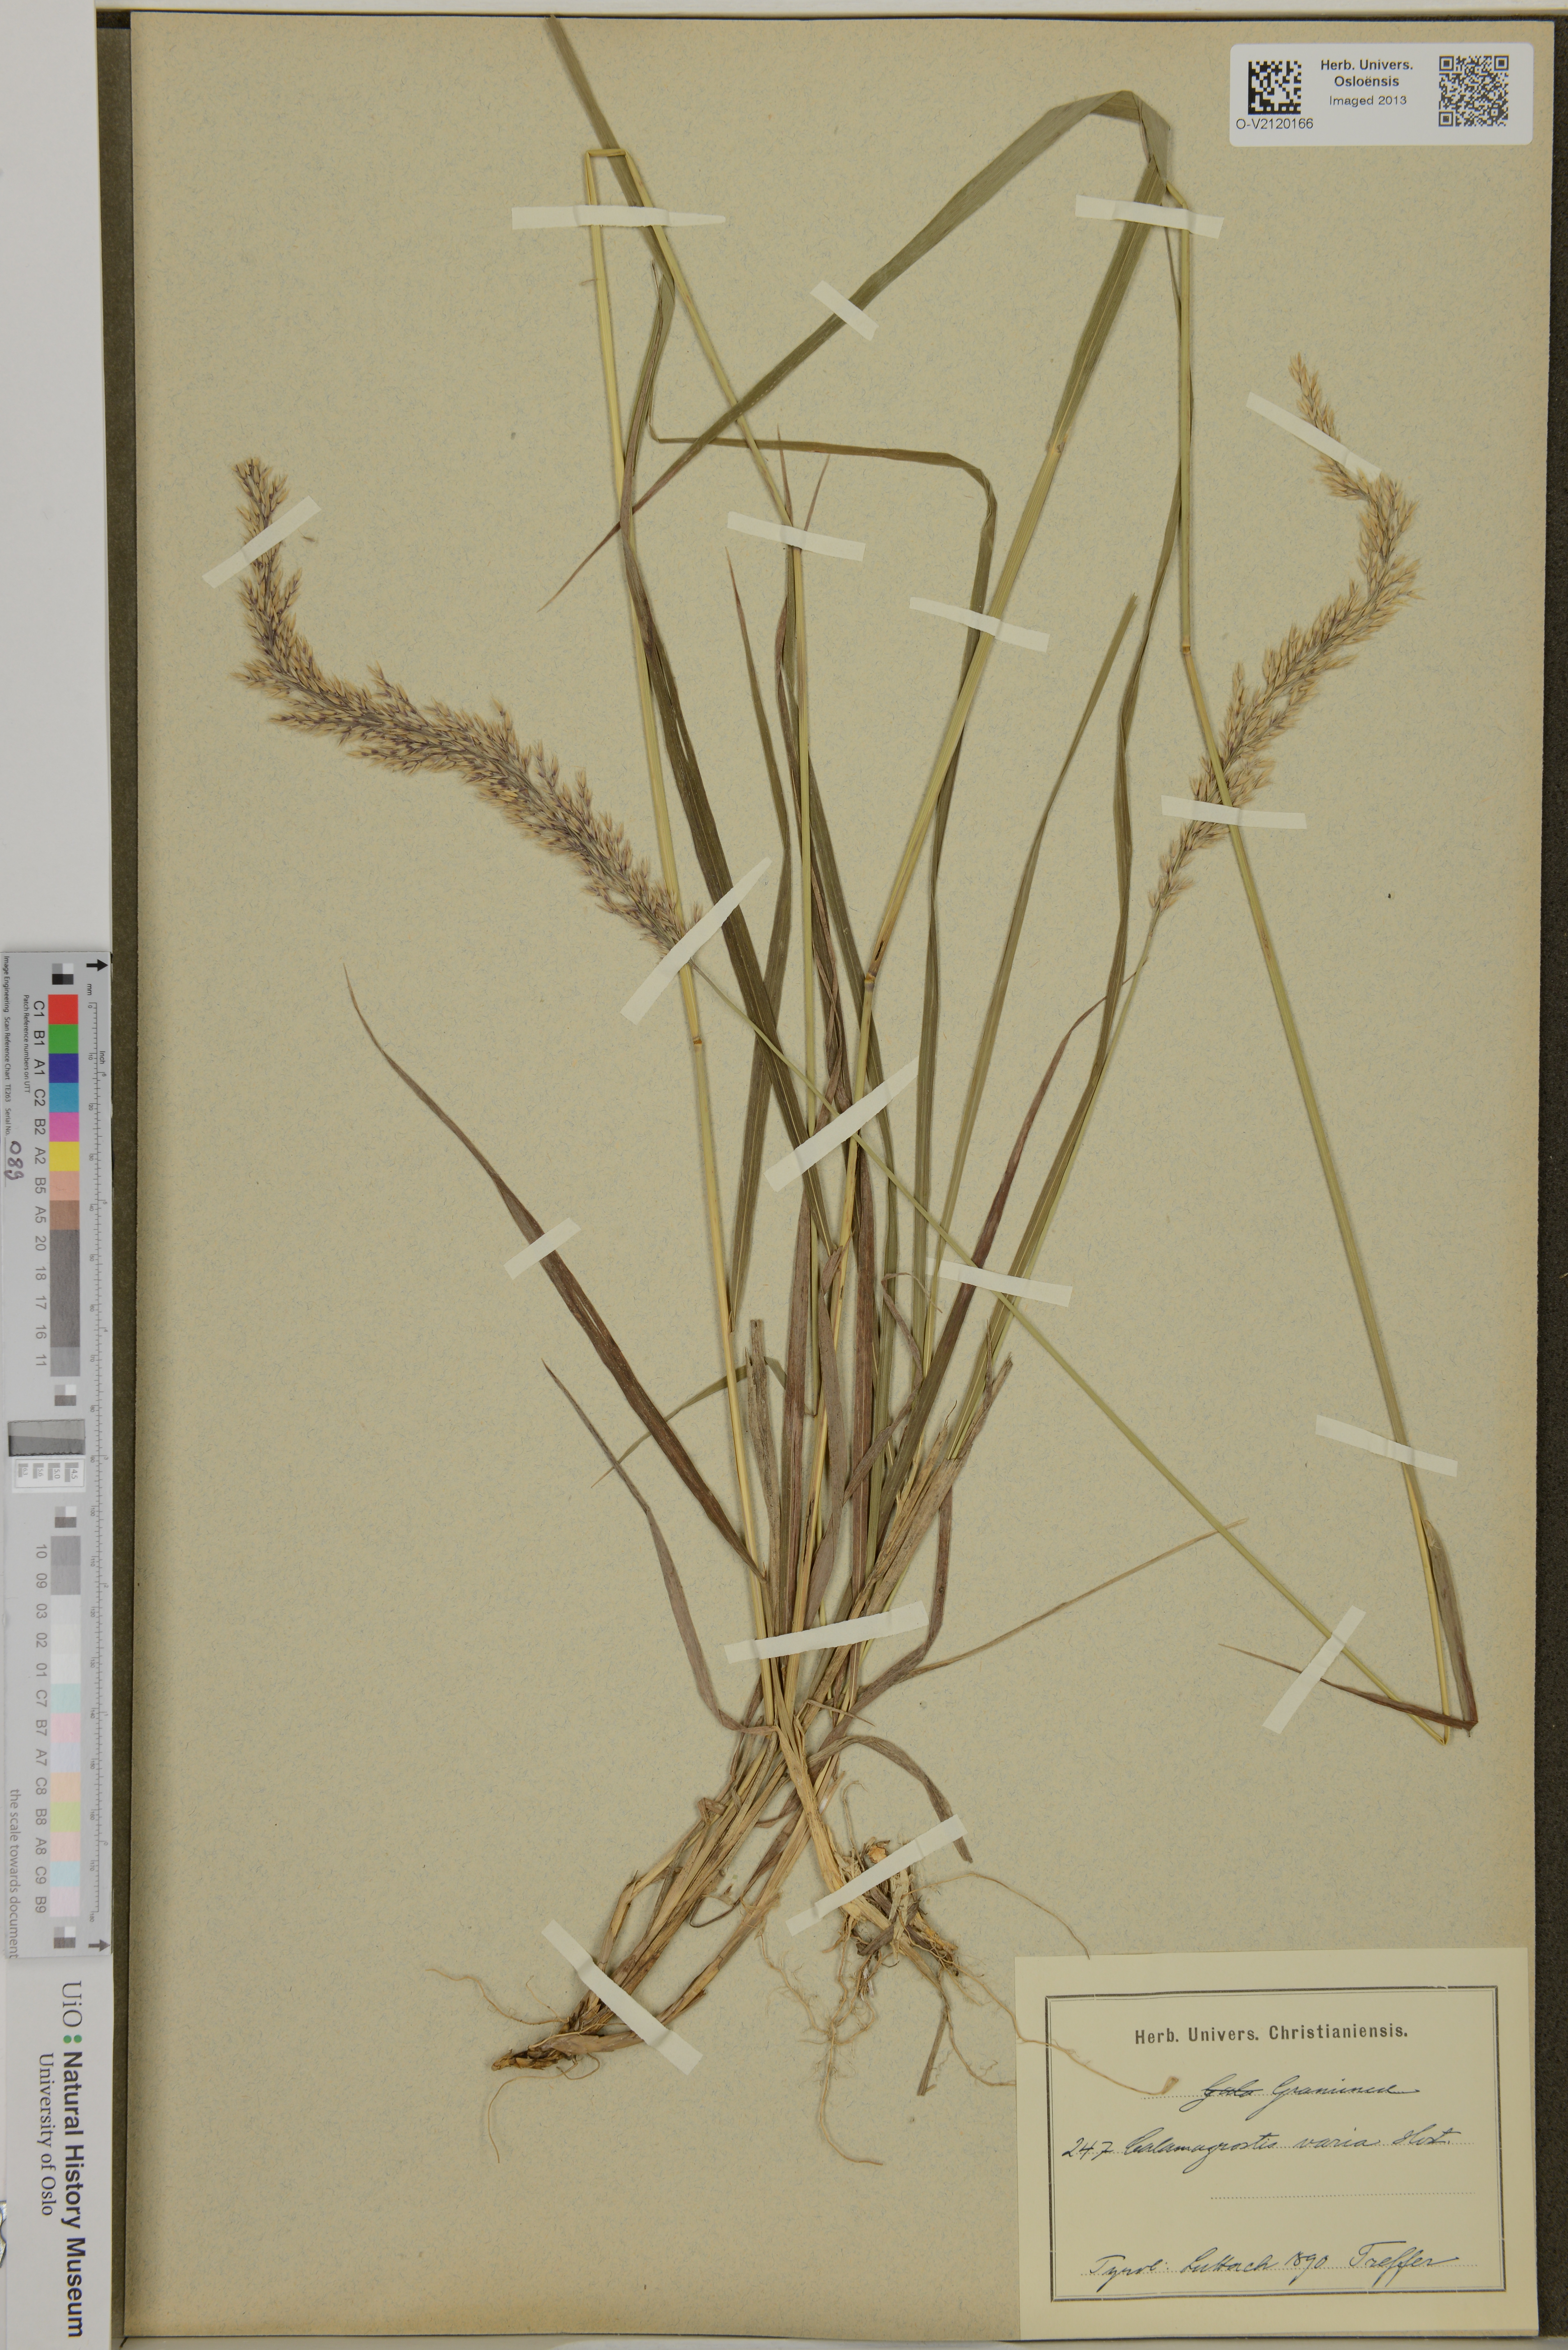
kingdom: Plantae
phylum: Tracheophyta
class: Liliopsida
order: Poales
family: Poaceae
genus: Calamagrostis
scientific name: Calamagrostis varia
